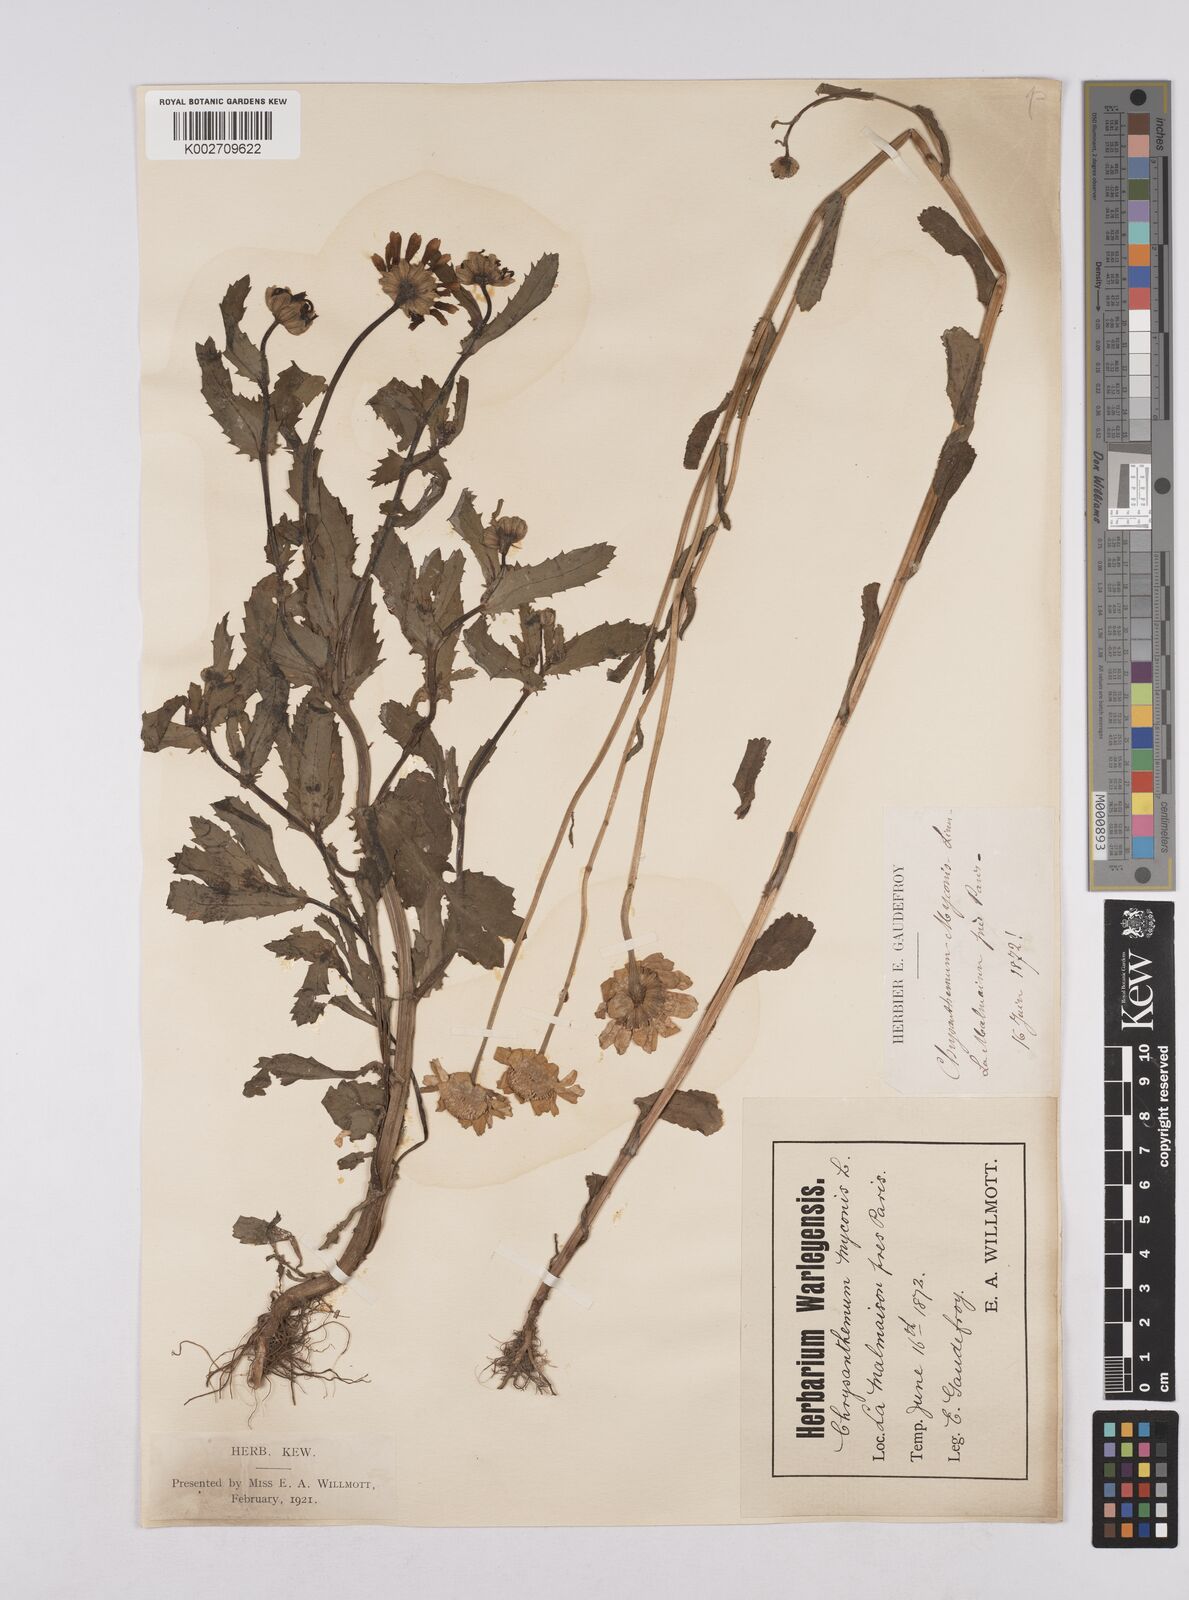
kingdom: Plantae
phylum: Tracheophyta
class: Magnoliopsida
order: Asterales
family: Asteraceae
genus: Coleostephus
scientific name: Coleostephus myconis
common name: Mediterranean marigold
